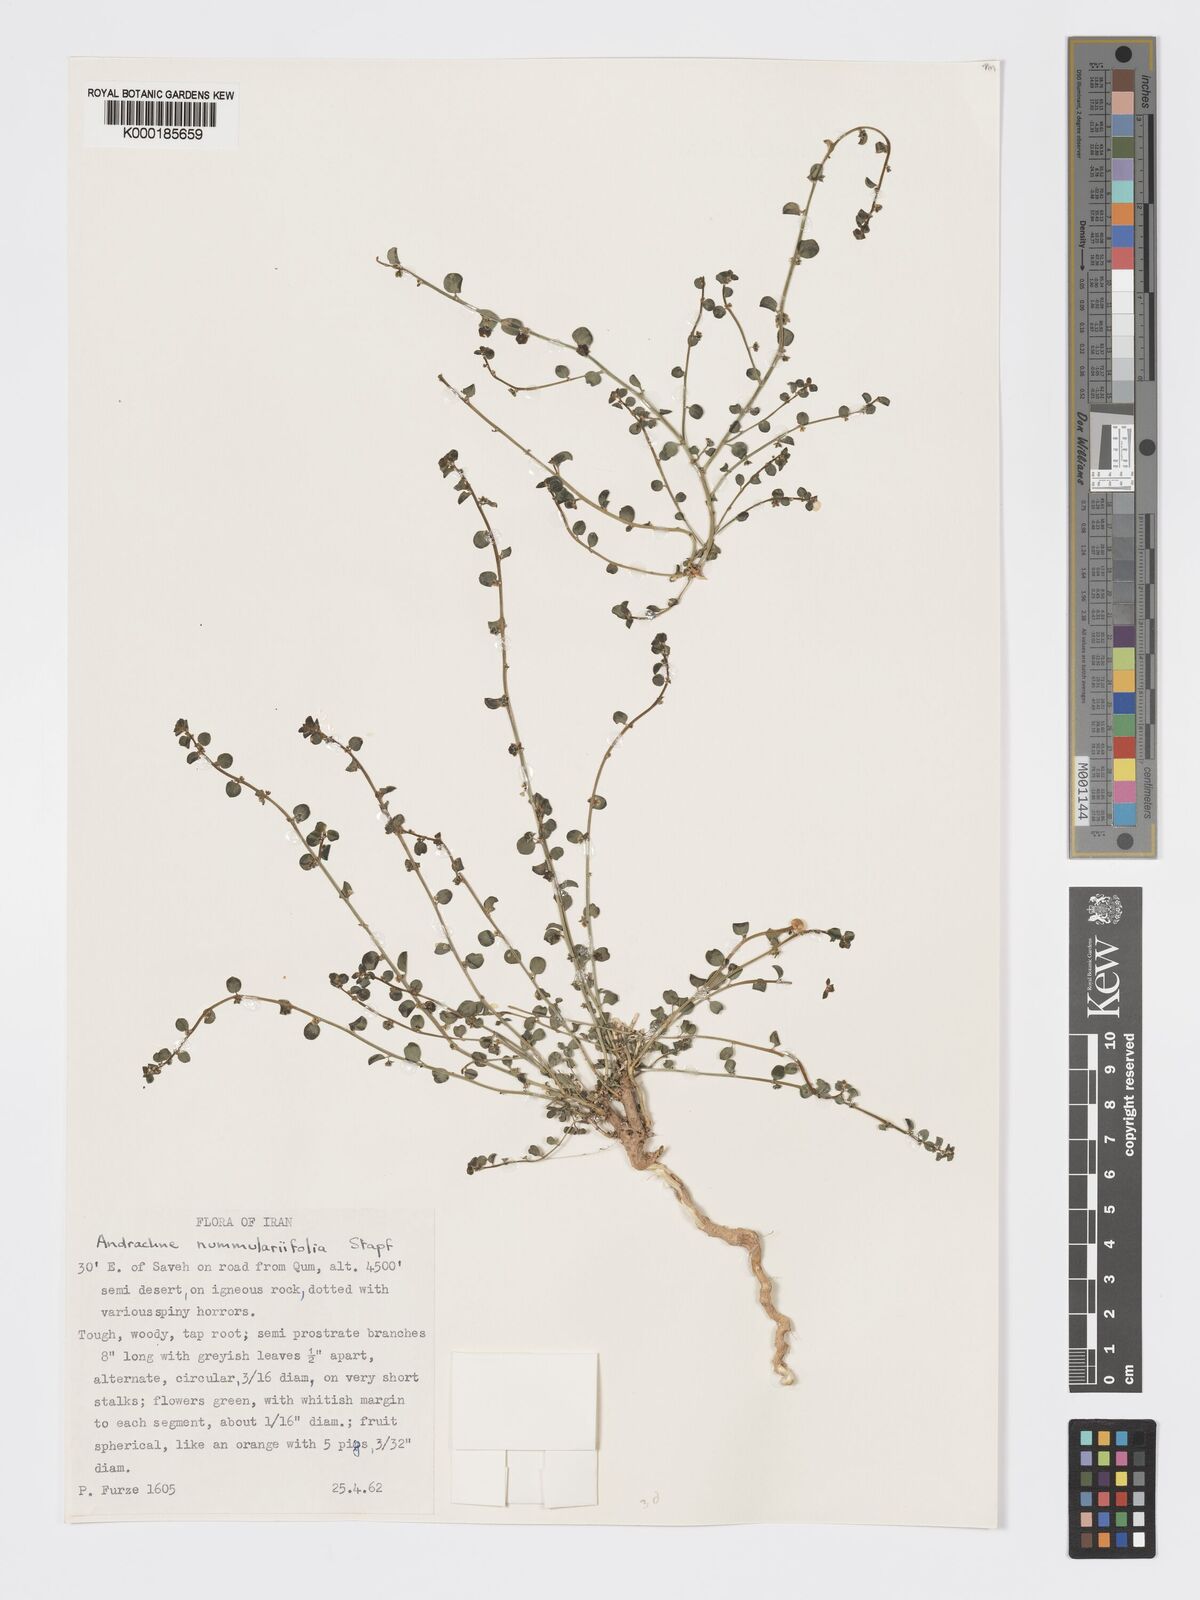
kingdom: Plantae
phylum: Tracheophyta
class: Magnoliopsida
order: Malpighiales
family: Phyllanthaceae
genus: Andrachne
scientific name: Andrachne telephioides
